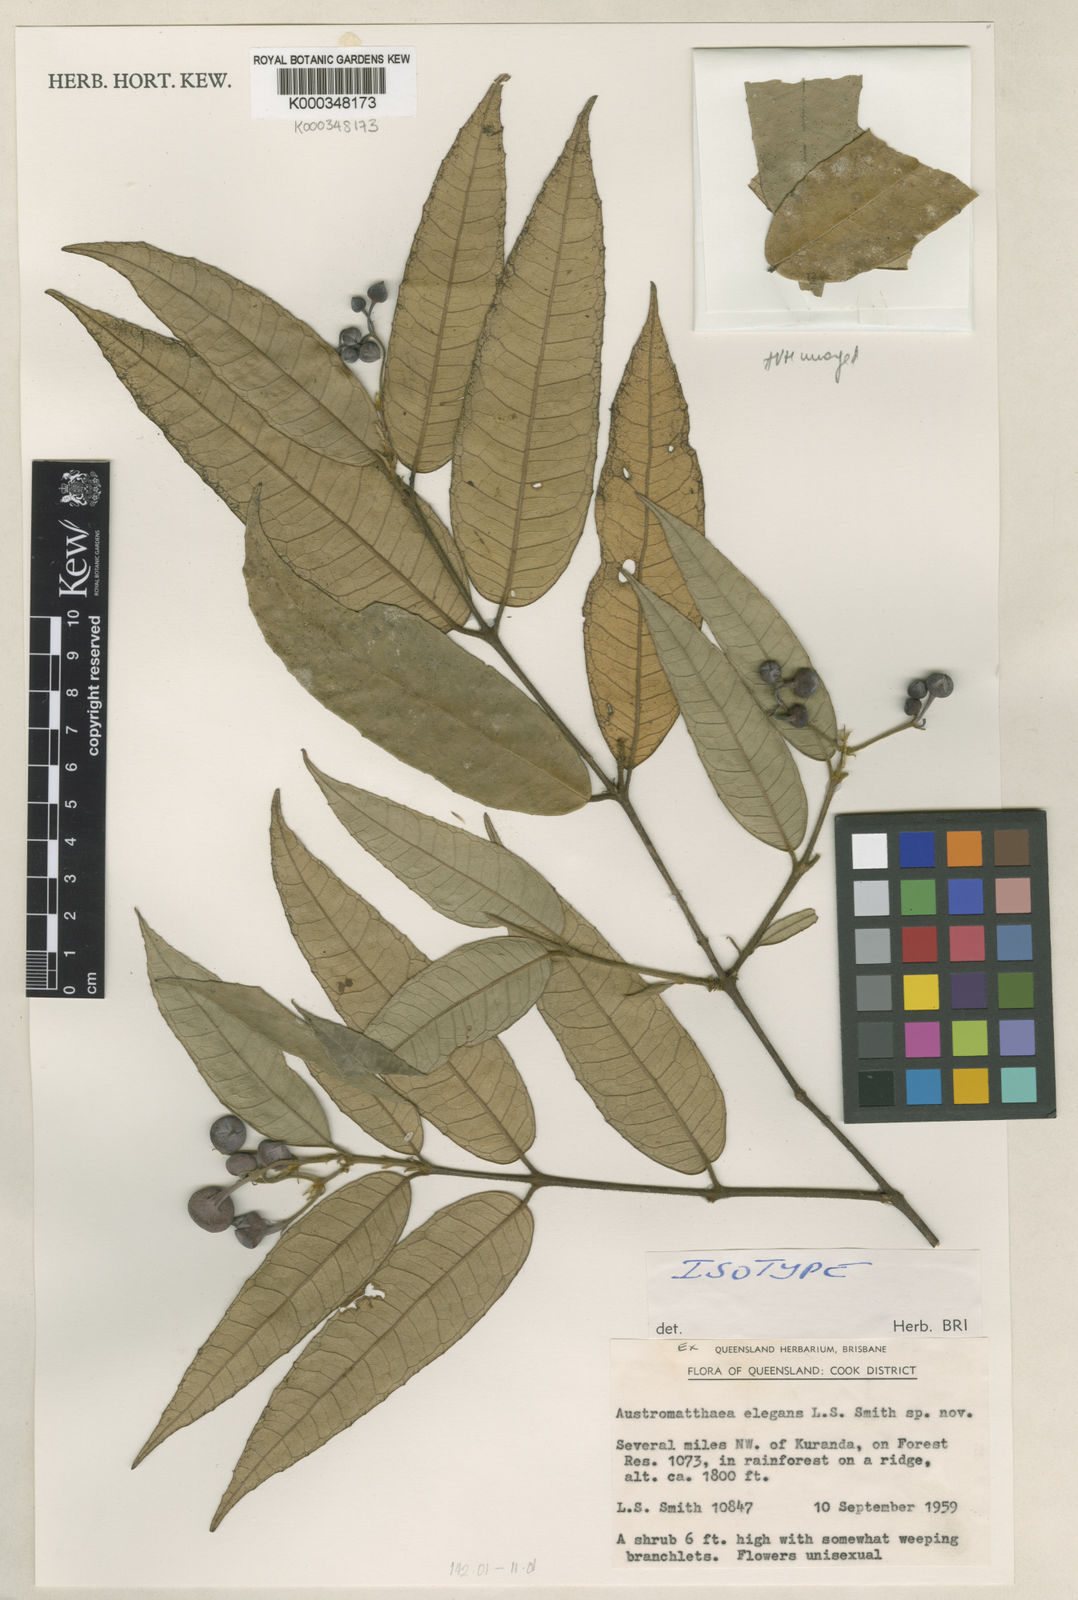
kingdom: Plantae
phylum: Tracheophyta
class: Magnoliopsida
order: Laurales
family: Monimiaceae
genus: Austromatthaea
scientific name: Austromatthaea elegans
